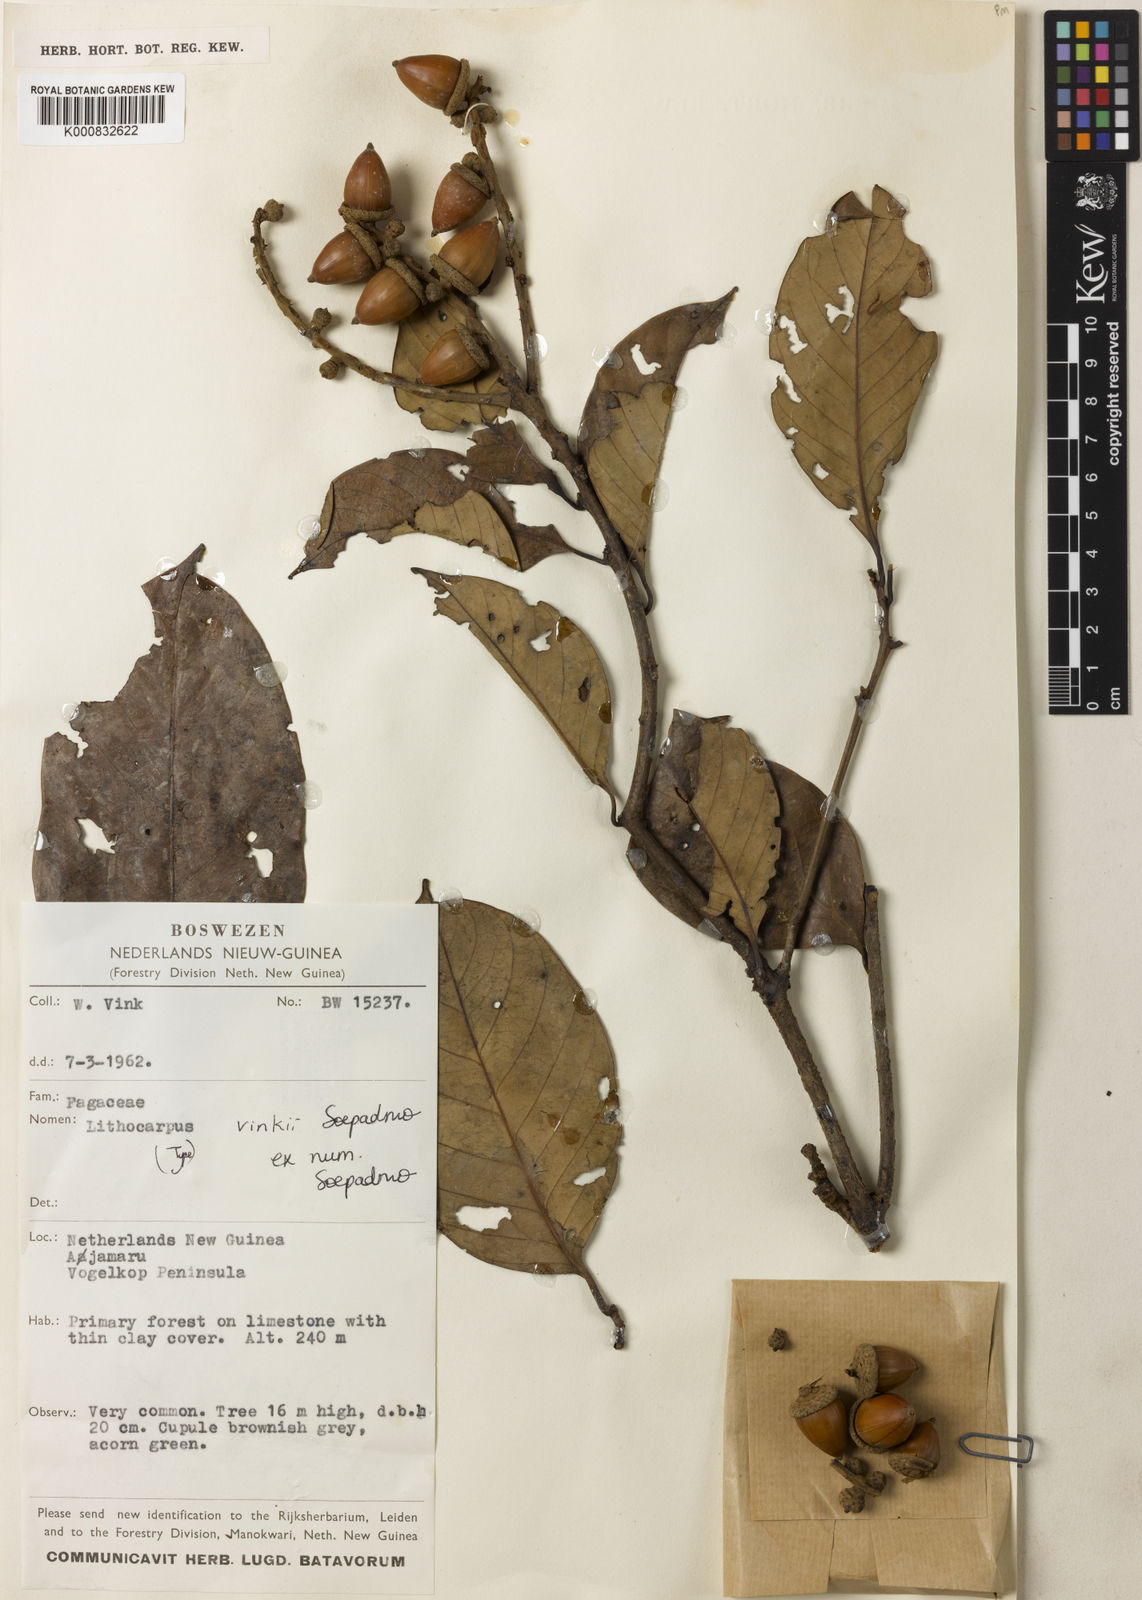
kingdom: Plantae
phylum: Tracheophyta
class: Magnoliopsida
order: Fagales
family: Fagaceae
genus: Lithocarpus
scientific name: Lithocarpus vinkii
